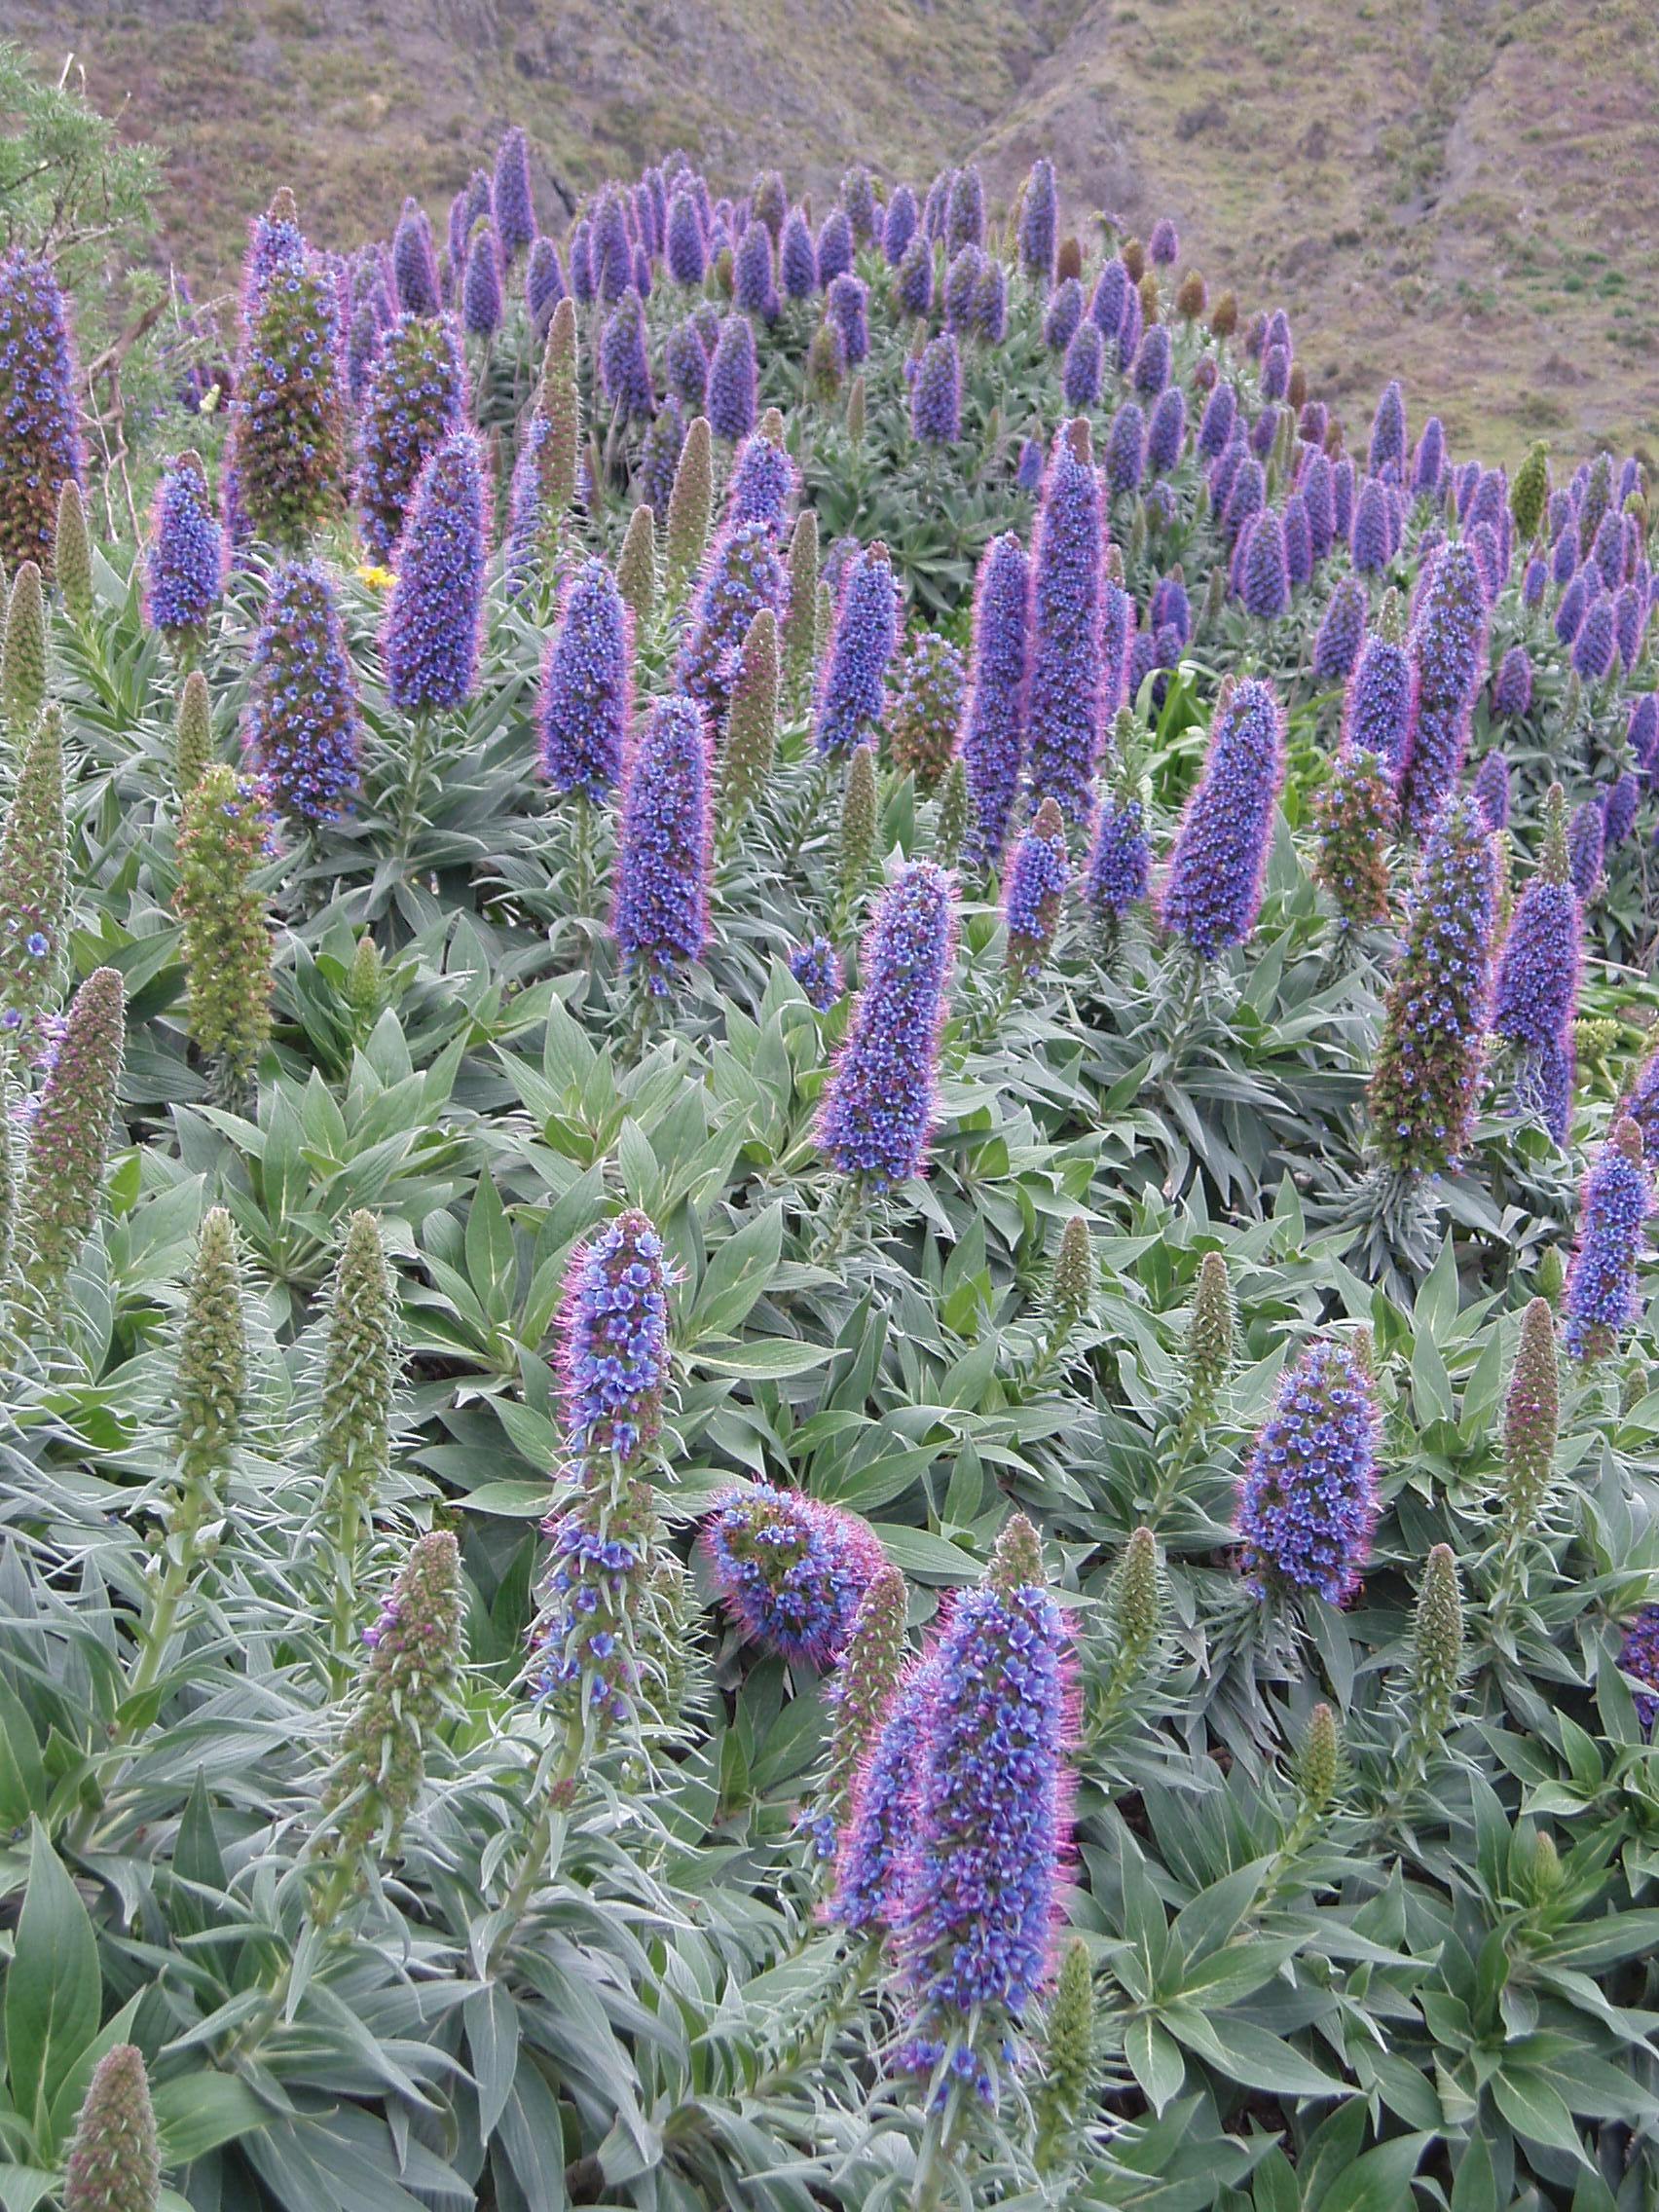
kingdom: Plantae
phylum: Tracheophyta
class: Magnoliopsida
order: Boraginales
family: Boraginaceae
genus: Echium
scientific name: Echium candicans
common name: Pride of madeira
